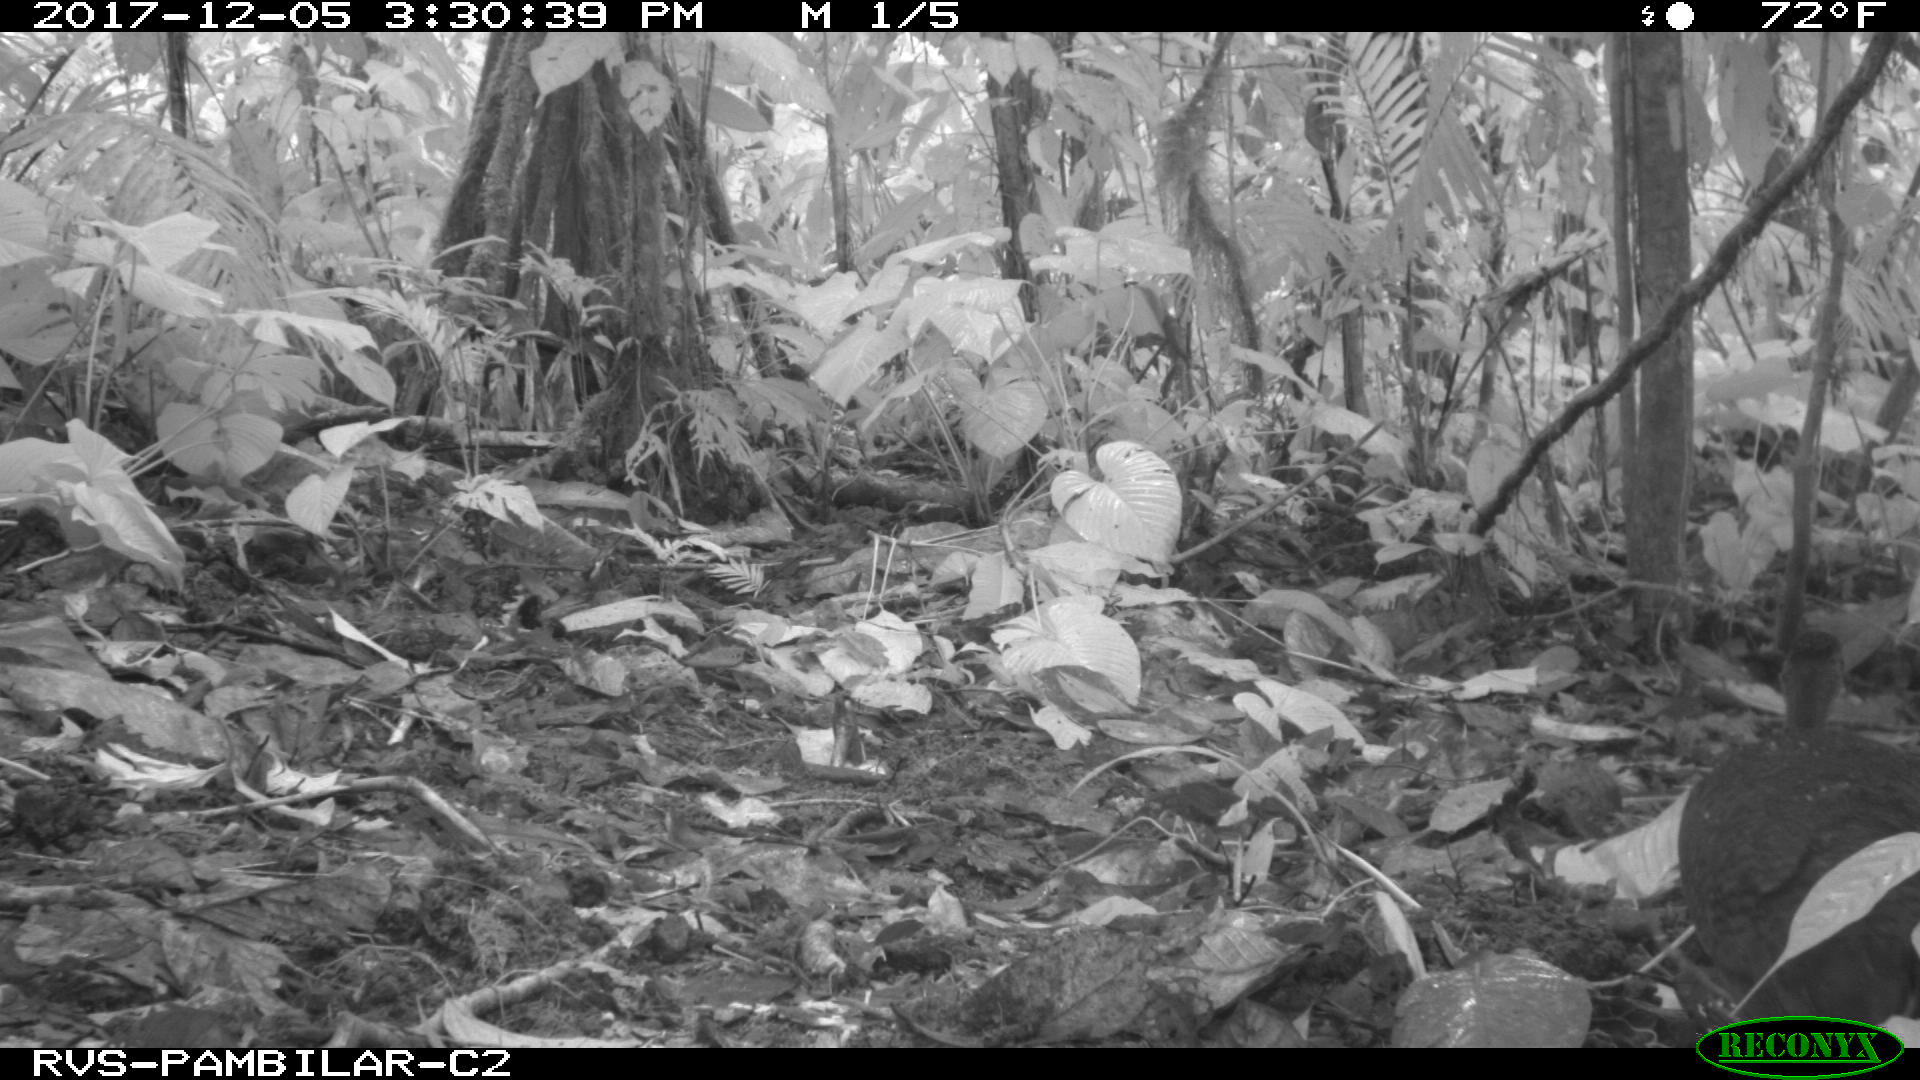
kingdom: Animalia
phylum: Chordata
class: Aves
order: Tinamiformes
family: Tinamidae
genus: Tinamus
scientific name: Tinamus major
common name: Great tinamou
